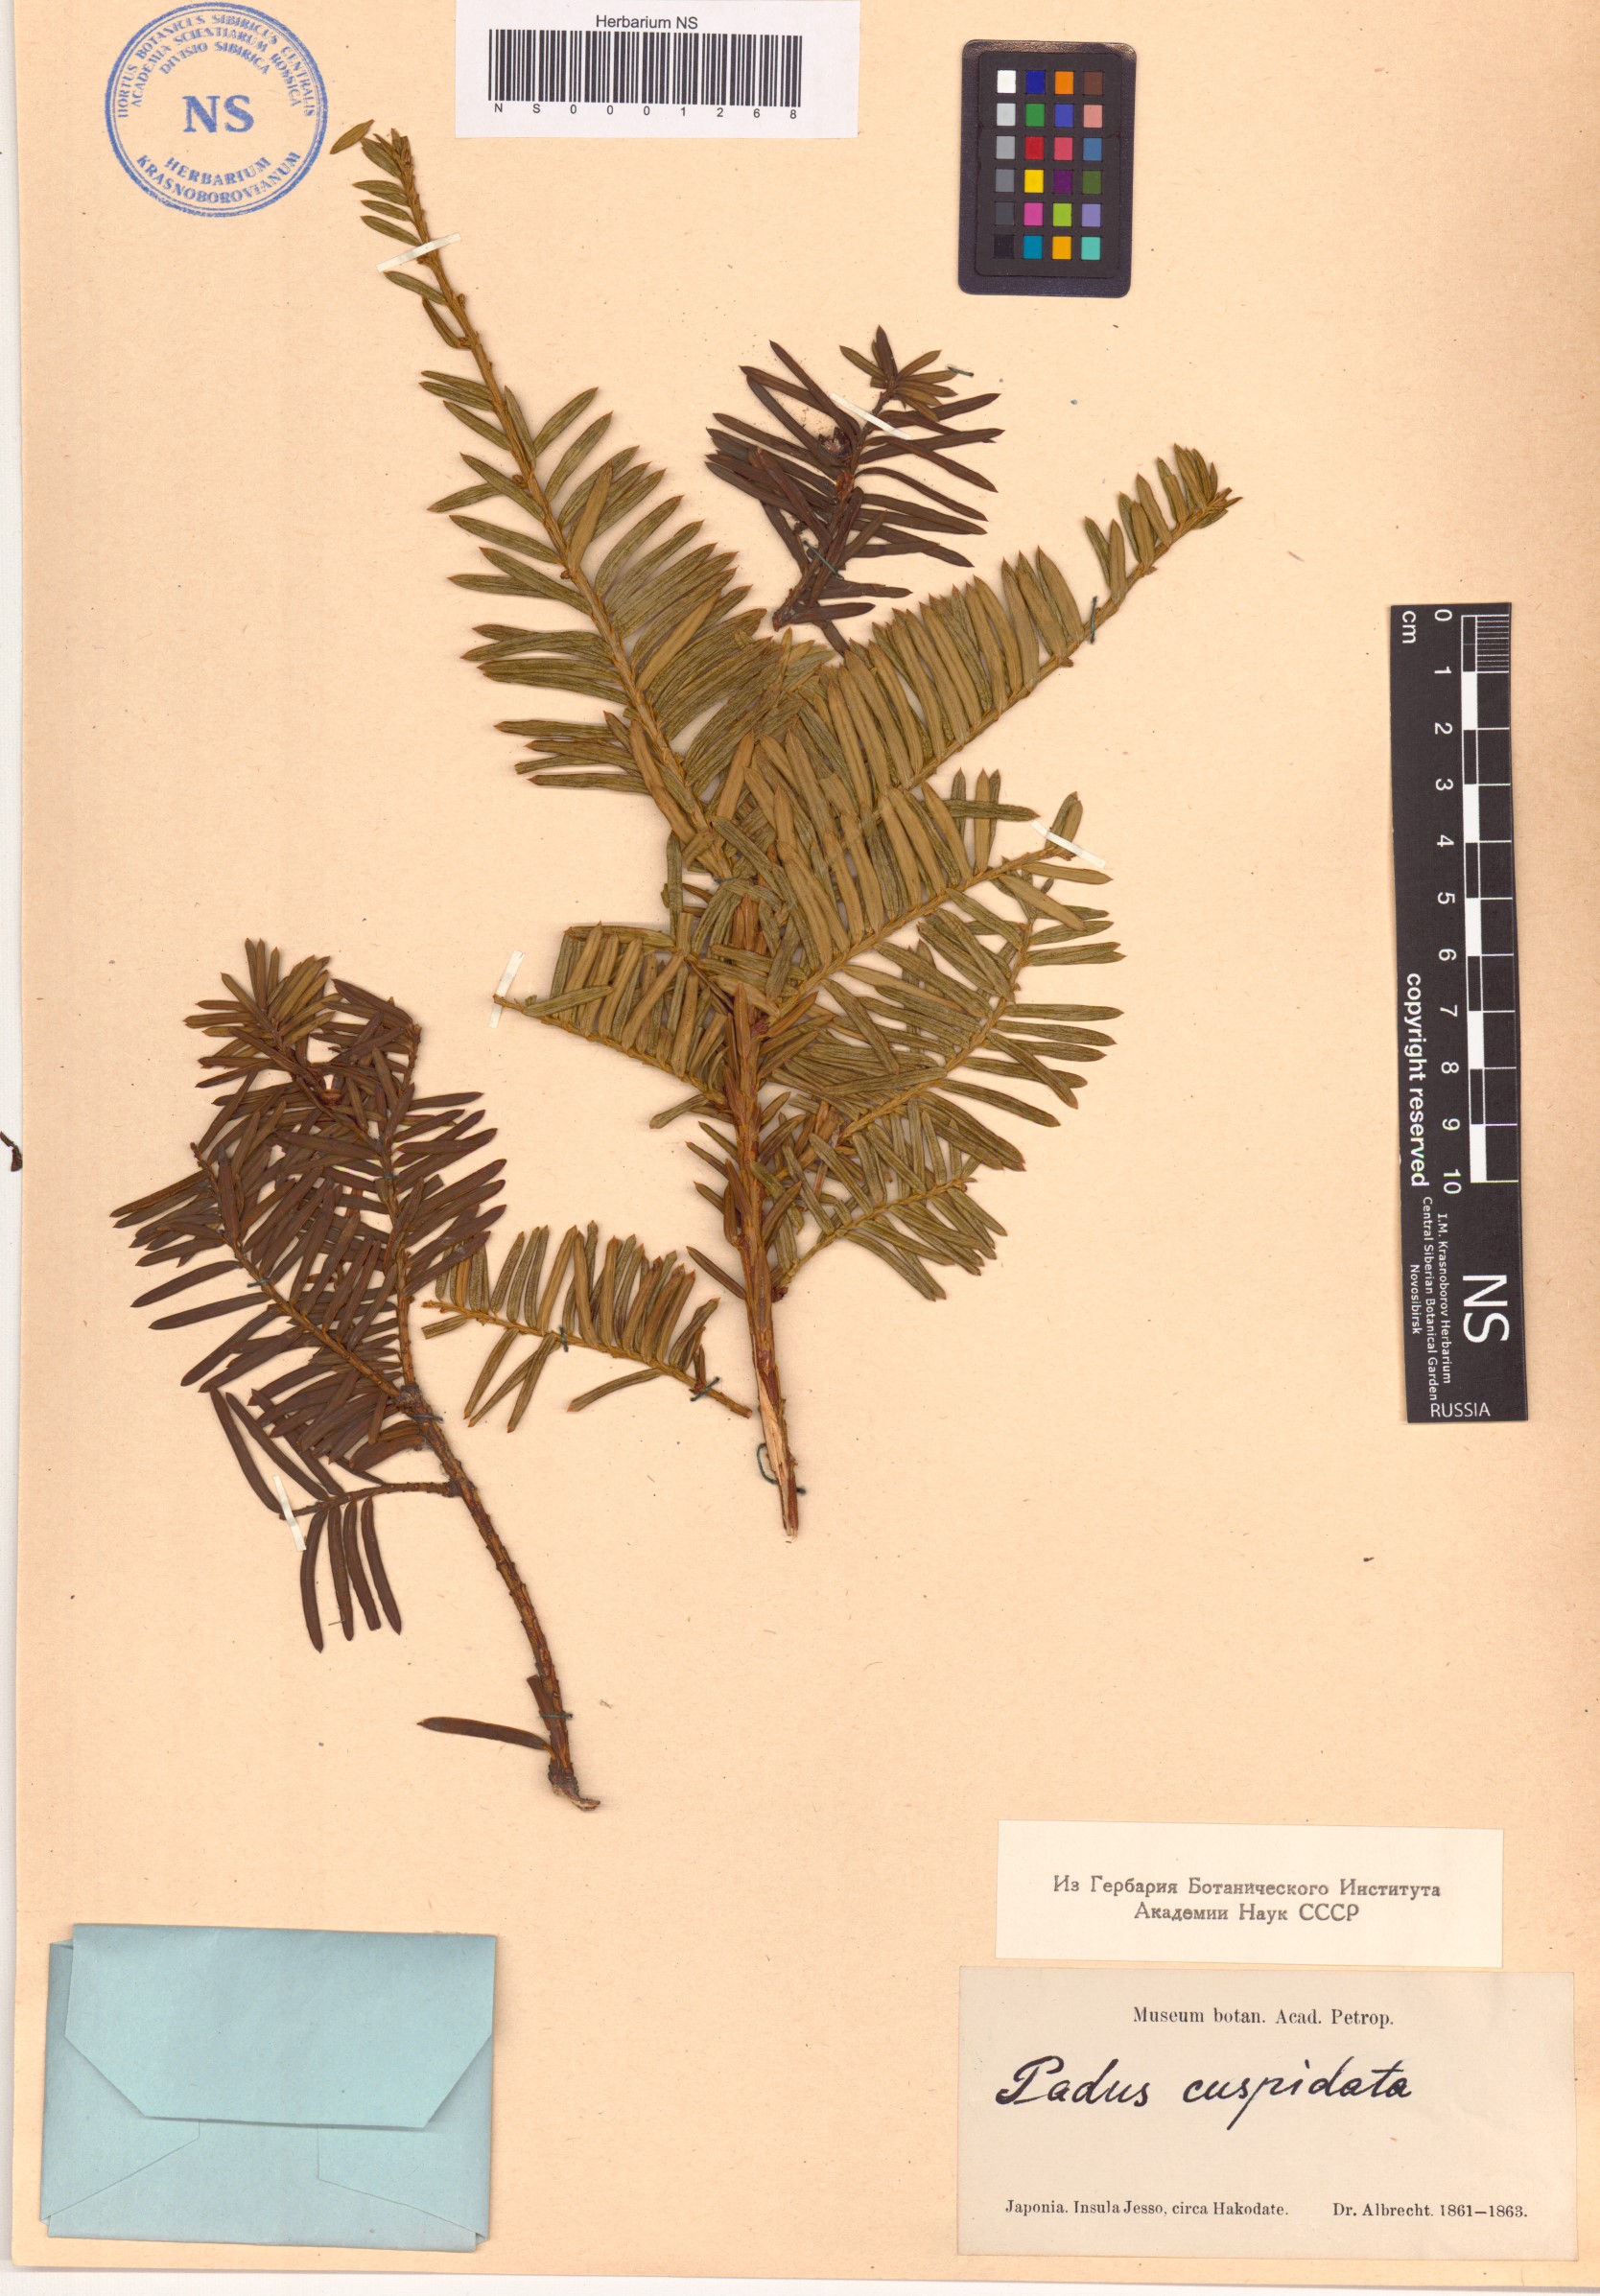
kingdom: Plantae
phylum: Tracheophyta
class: Pinopsida
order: Pinales
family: Taxaceae
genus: Taxus
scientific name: Taxus cuspidata
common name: Japanese yew
